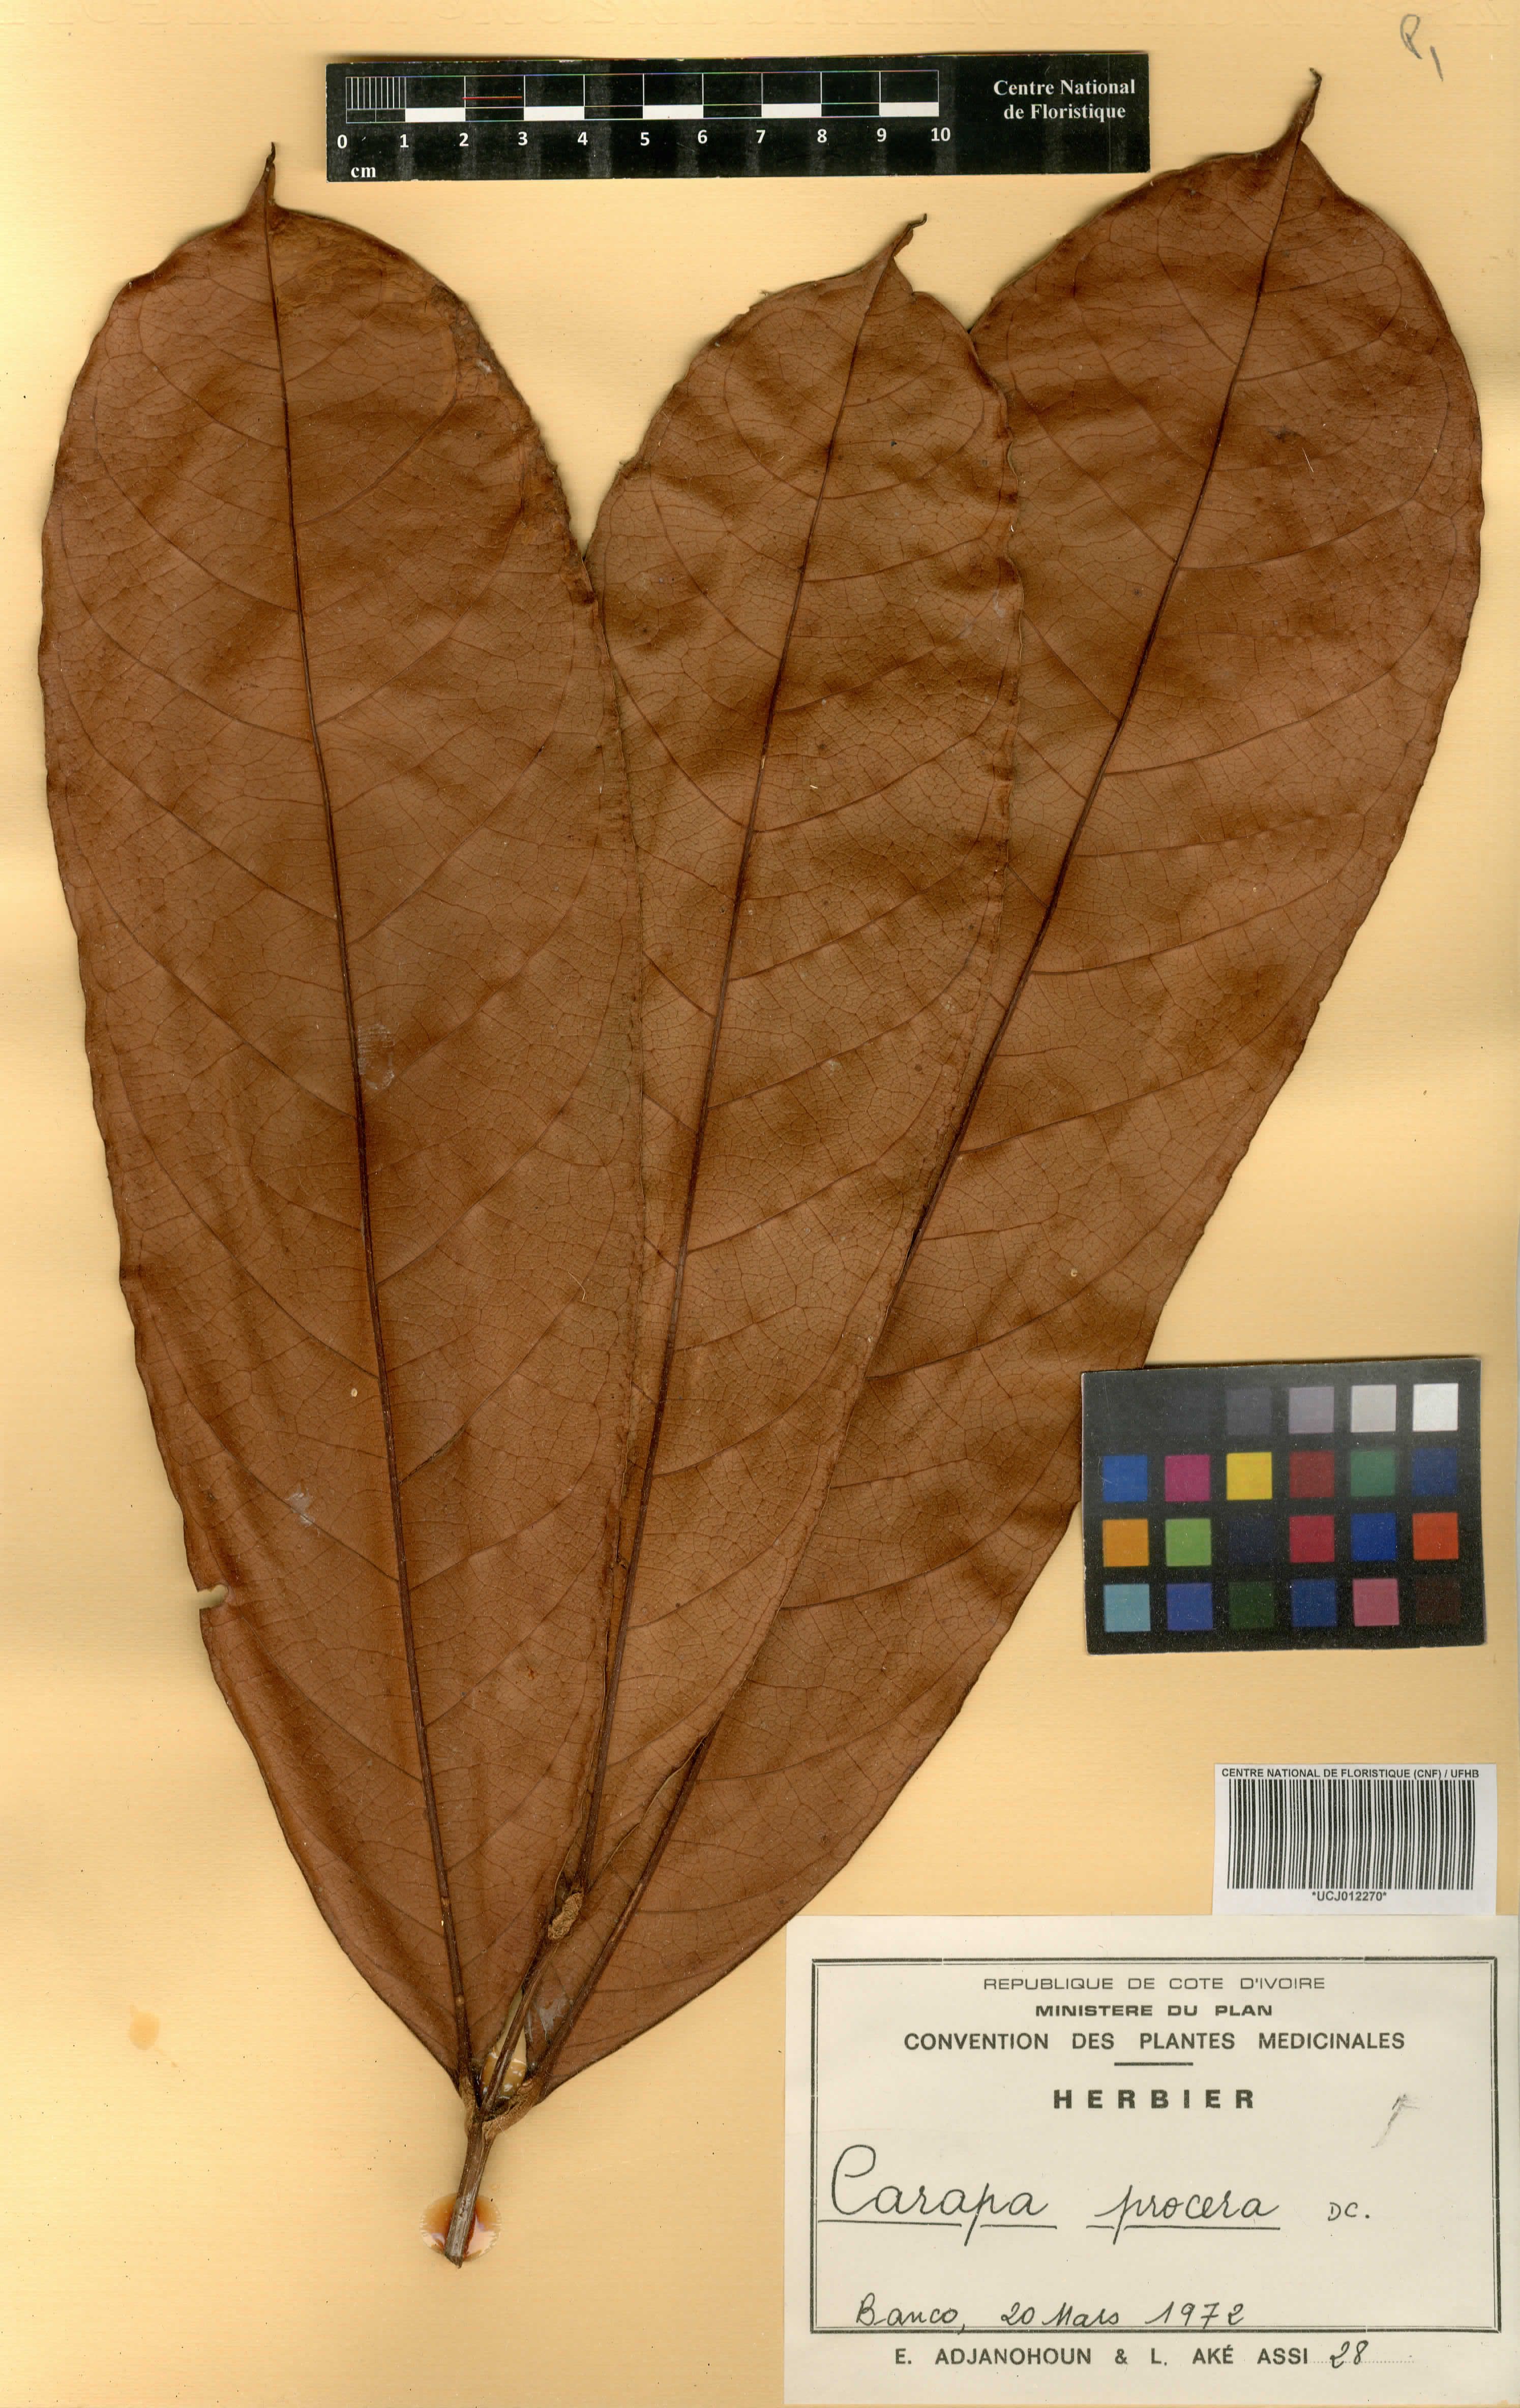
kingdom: Plantae
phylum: Tracheophyta
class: Magnoliopsida
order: Sapindales
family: Meliaceae
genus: Carapa
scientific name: Carapa procera
